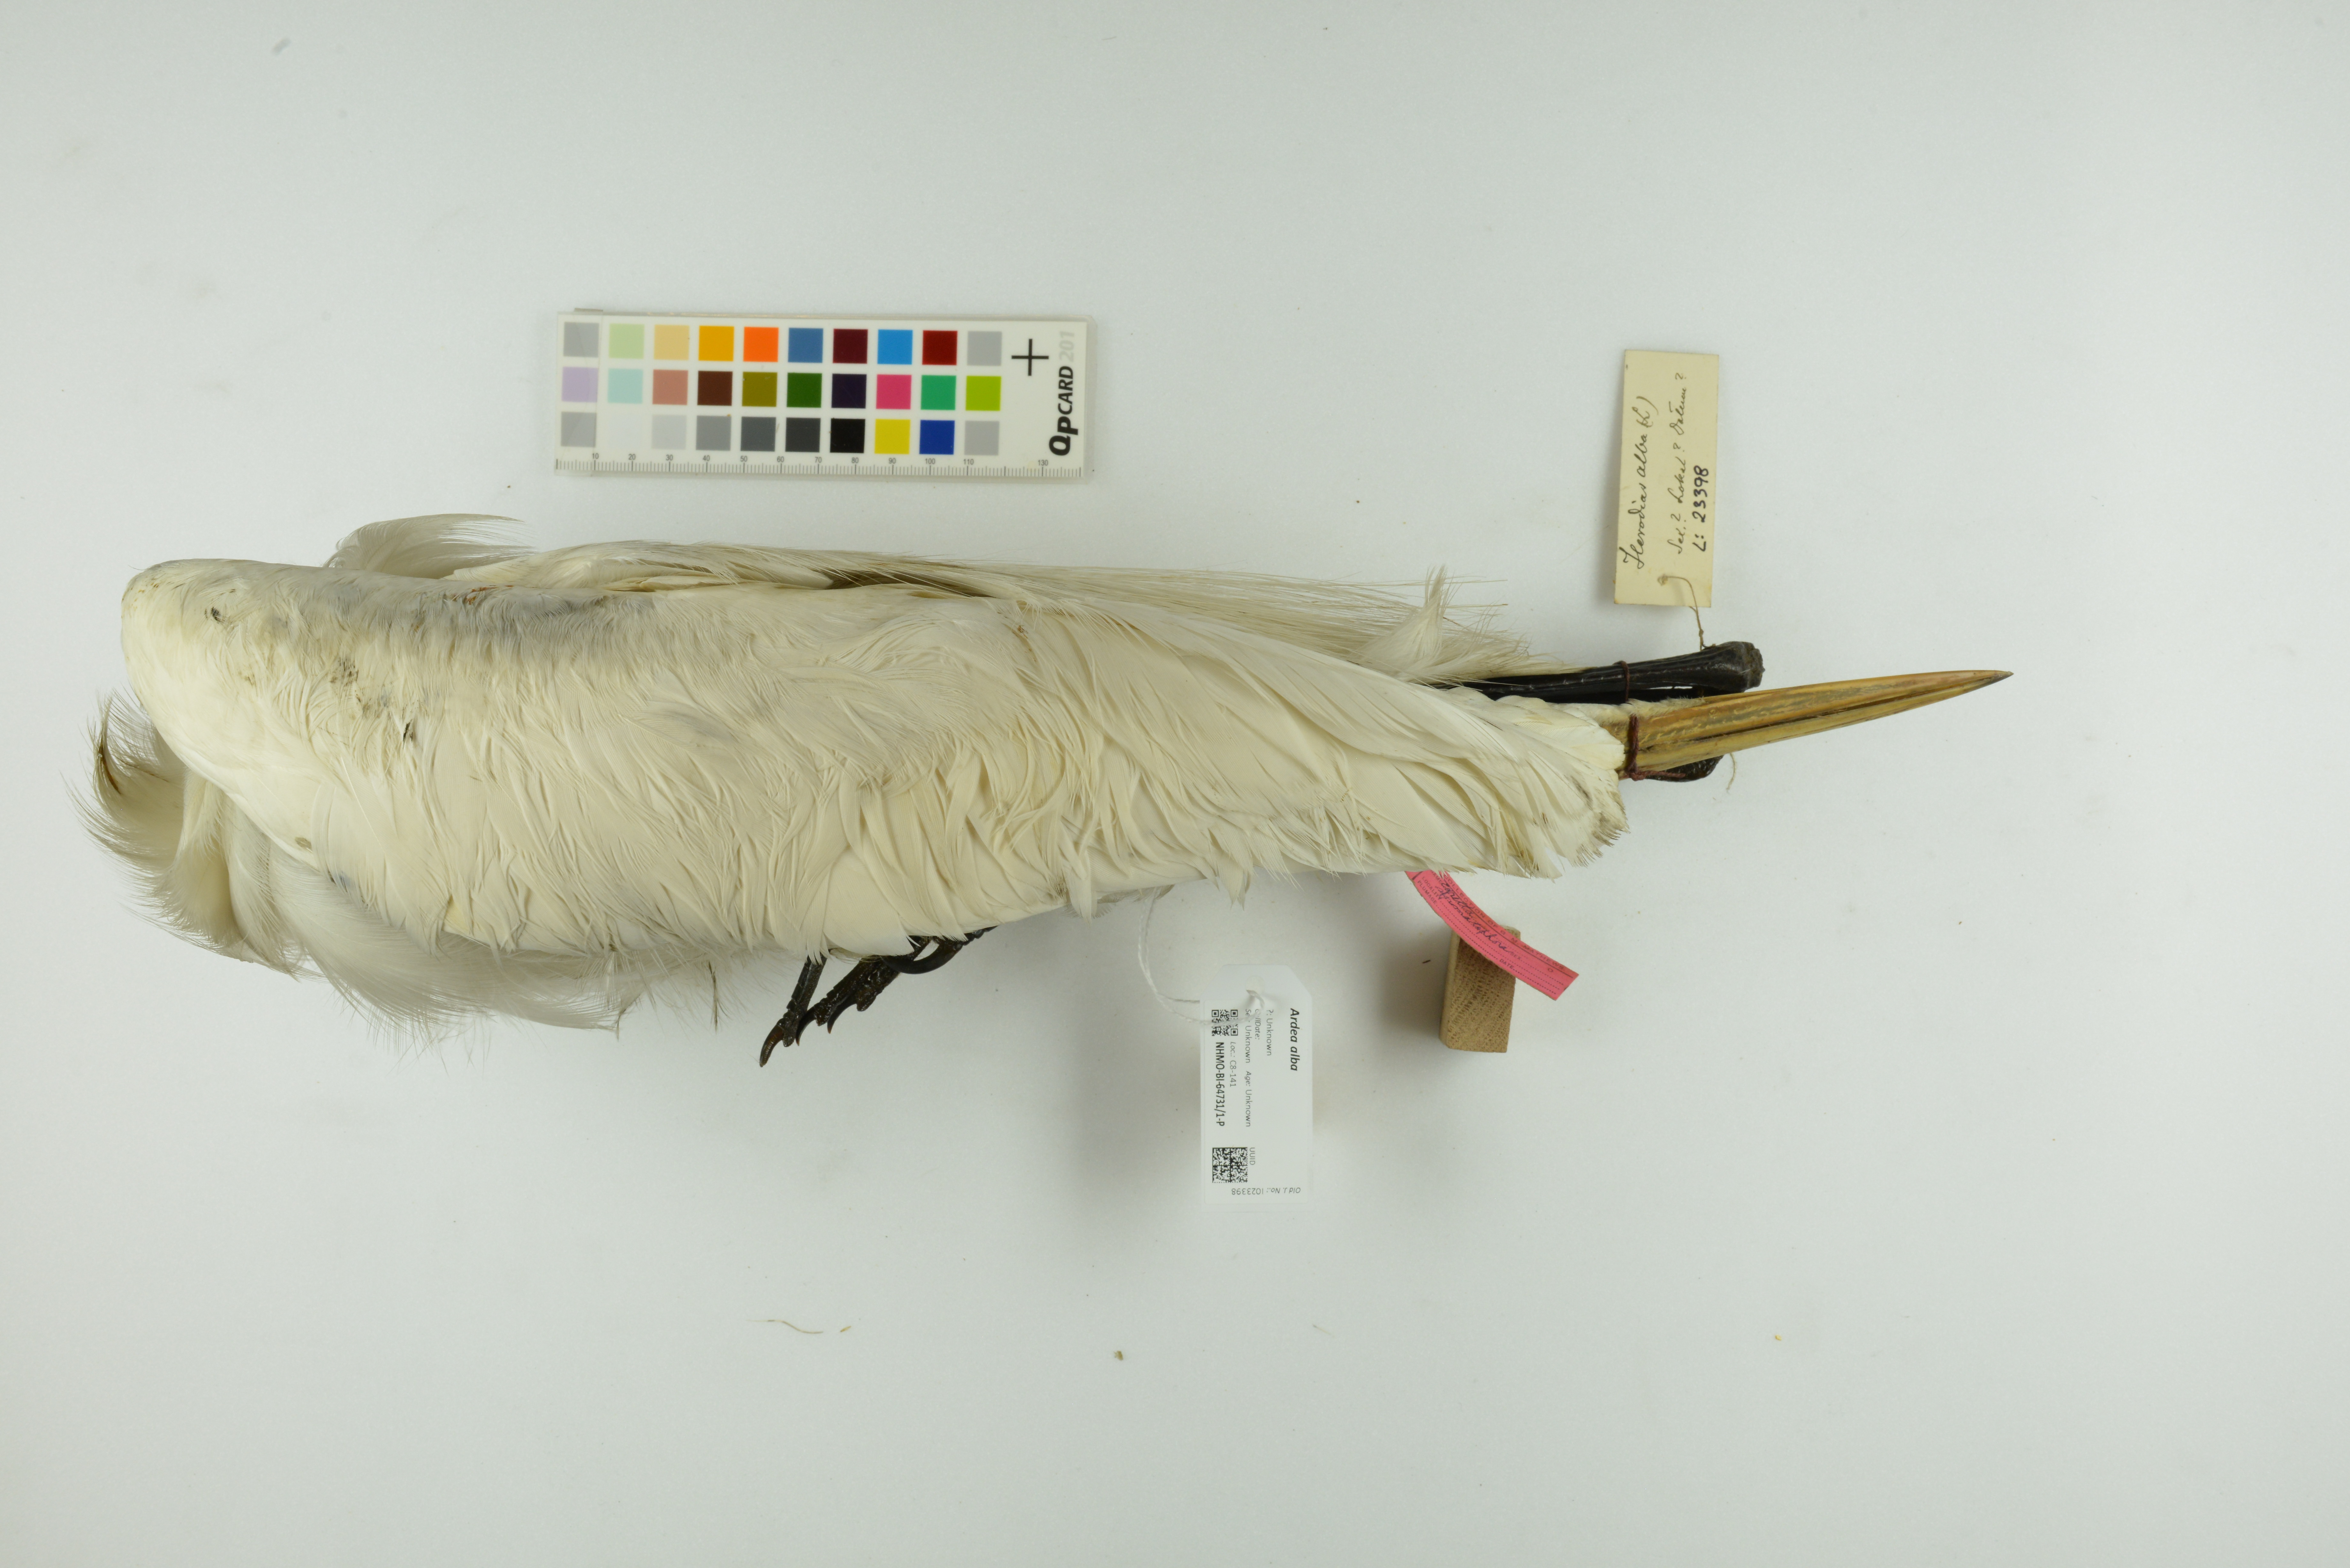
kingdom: Animalia
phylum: Chordata
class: Aves
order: Pelecaniformes
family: Ardeidae
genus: Ardea
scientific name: Ardea alba
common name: Great egret
